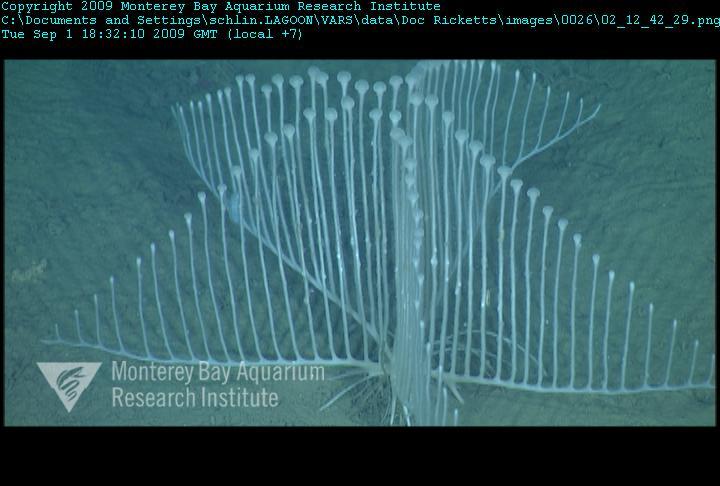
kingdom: Animalia
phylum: Porifera
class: Demospongiae
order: Poecilosclerida
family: Cladorhizidae
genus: Chondrocladia
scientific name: Chondrocladia lyra
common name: Harp sponge
